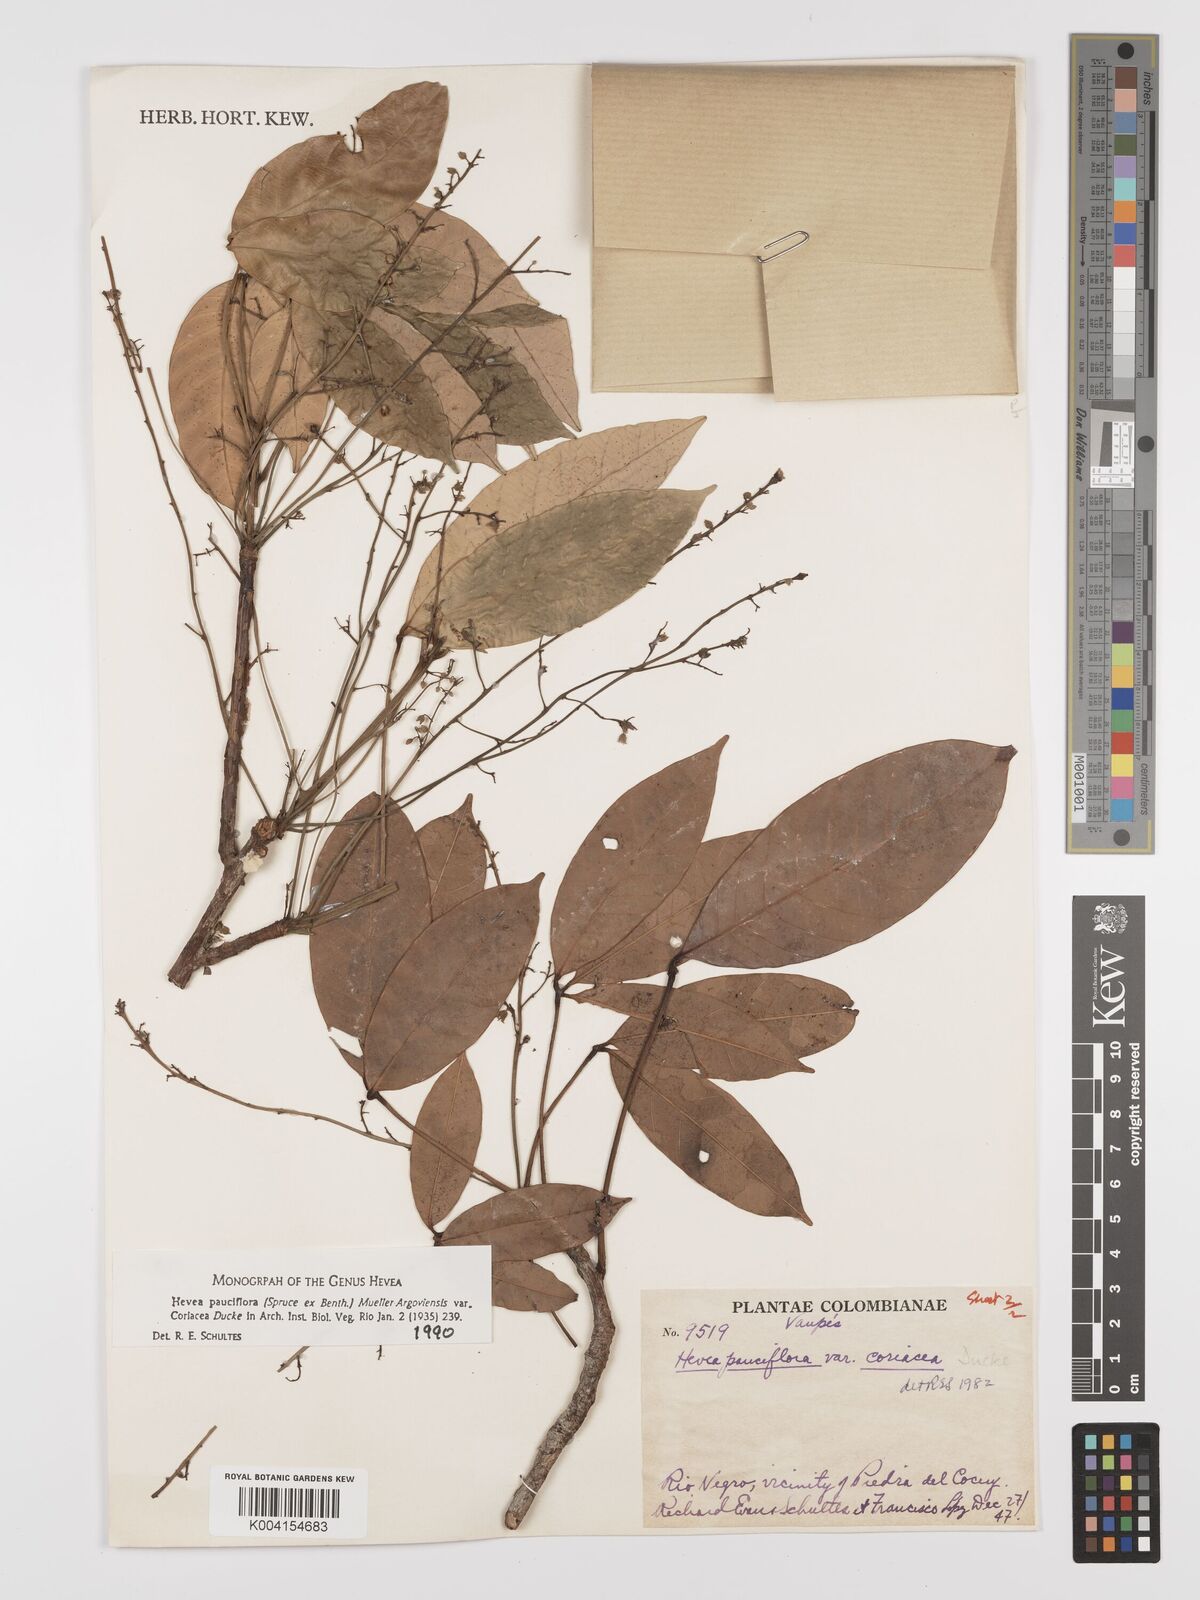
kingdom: Plantae
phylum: Tracheophyta
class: Magnoliopsida
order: Malpighiales
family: Euphorbiaceae
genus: Hevea
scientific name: Hevea pauciflora
